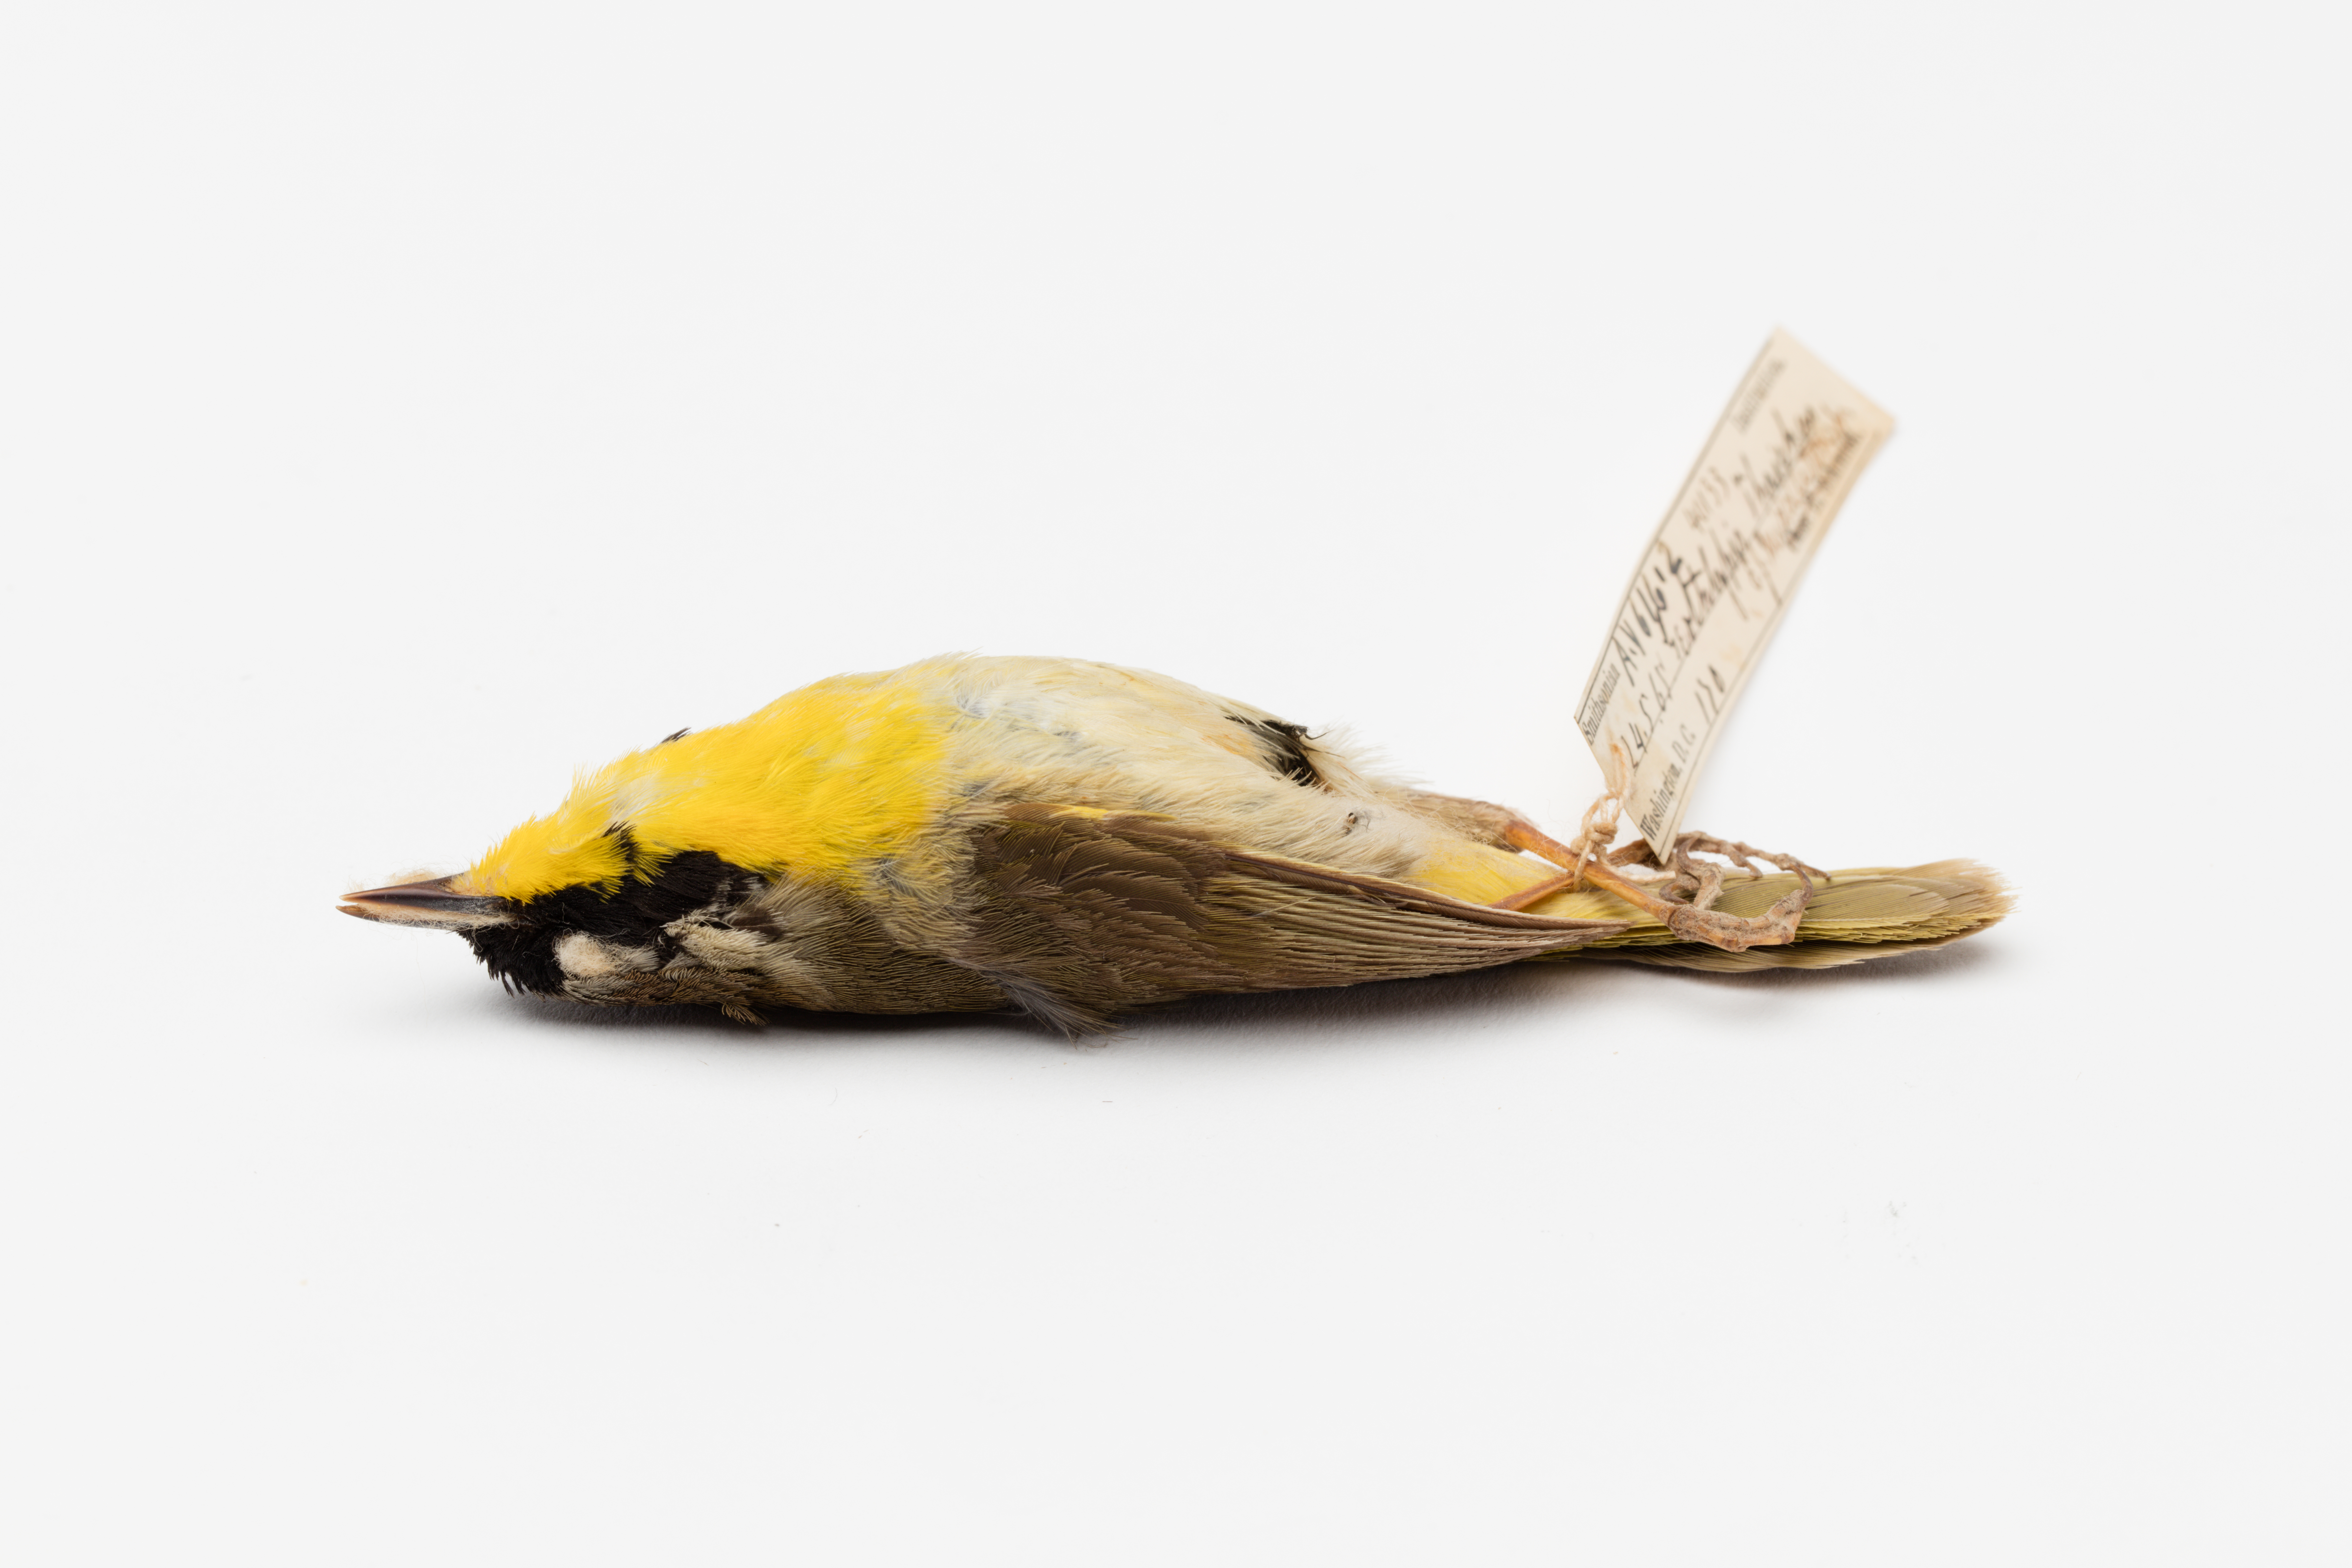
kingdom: Animalia
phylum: Chordata
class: Aves
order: Passeriformes
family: Parulidae
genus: Geothlypis
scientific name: Geothlypis trichas
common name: Common yellowthroat
